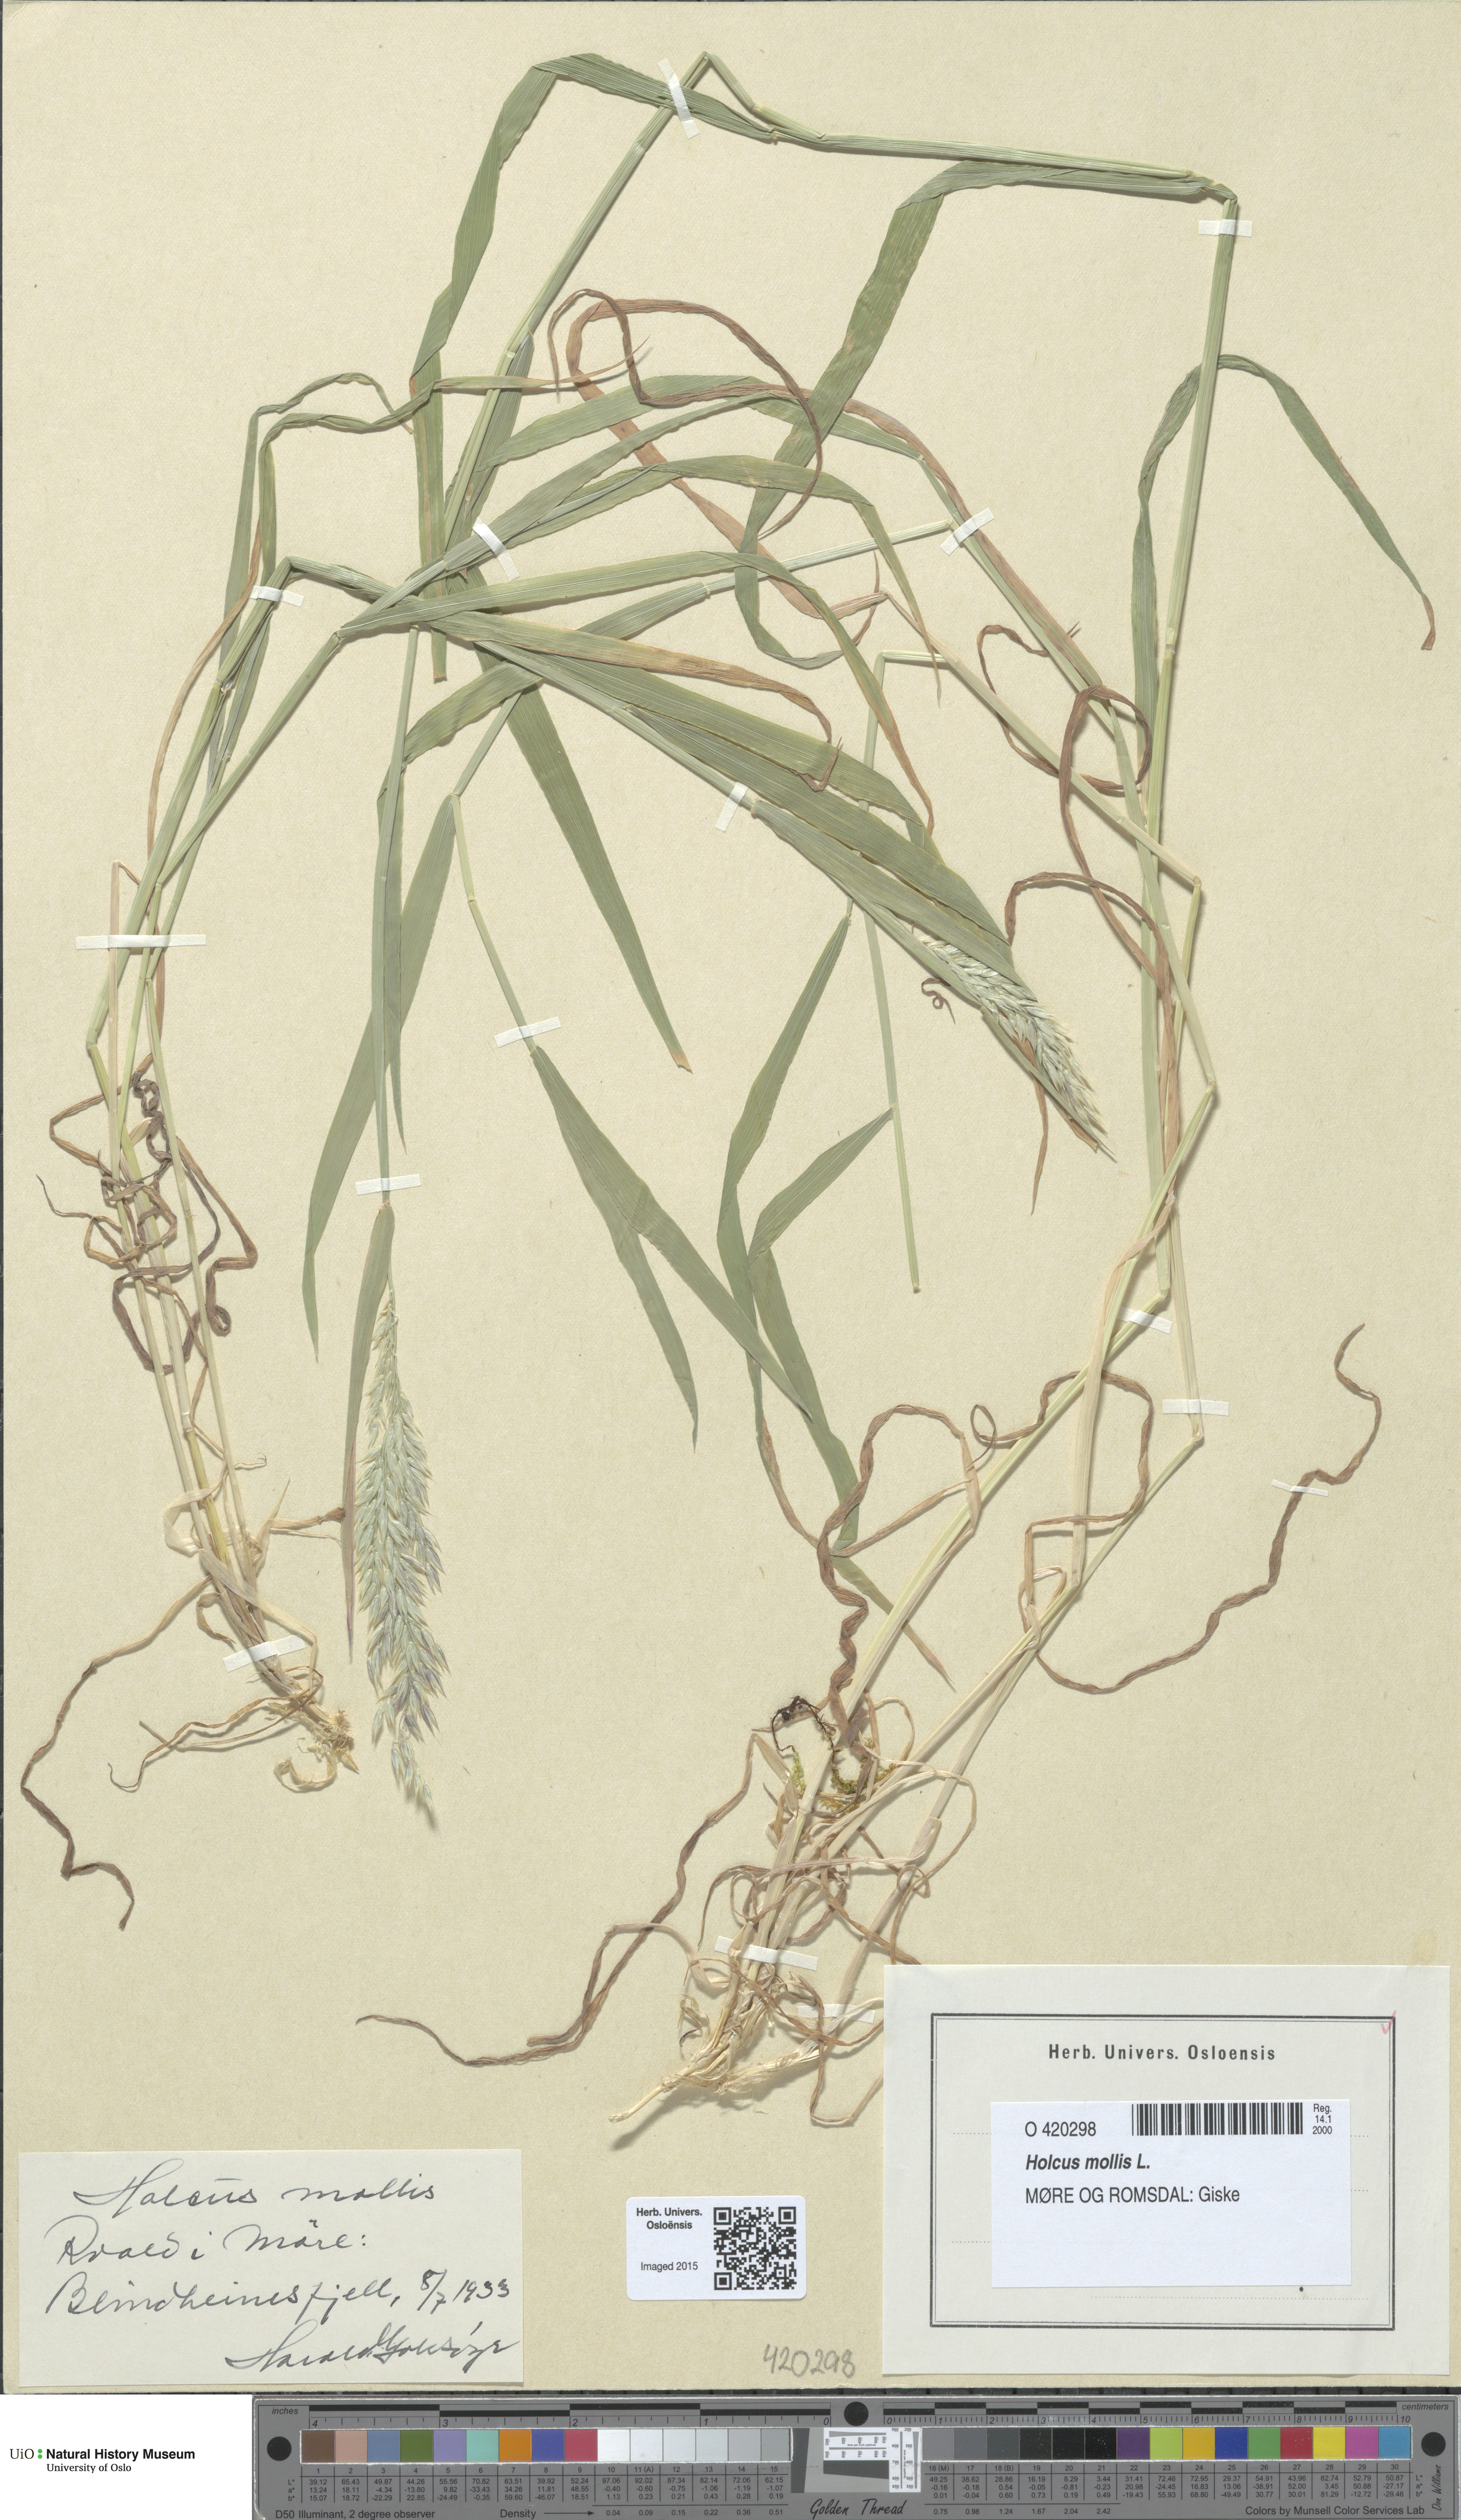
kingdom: Plantae
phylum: Tracheophyta
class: Liliopsida
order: Poales
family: Poaceae
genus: Holcus
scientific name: Holcus mollis
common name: Creeping velvetgrass
